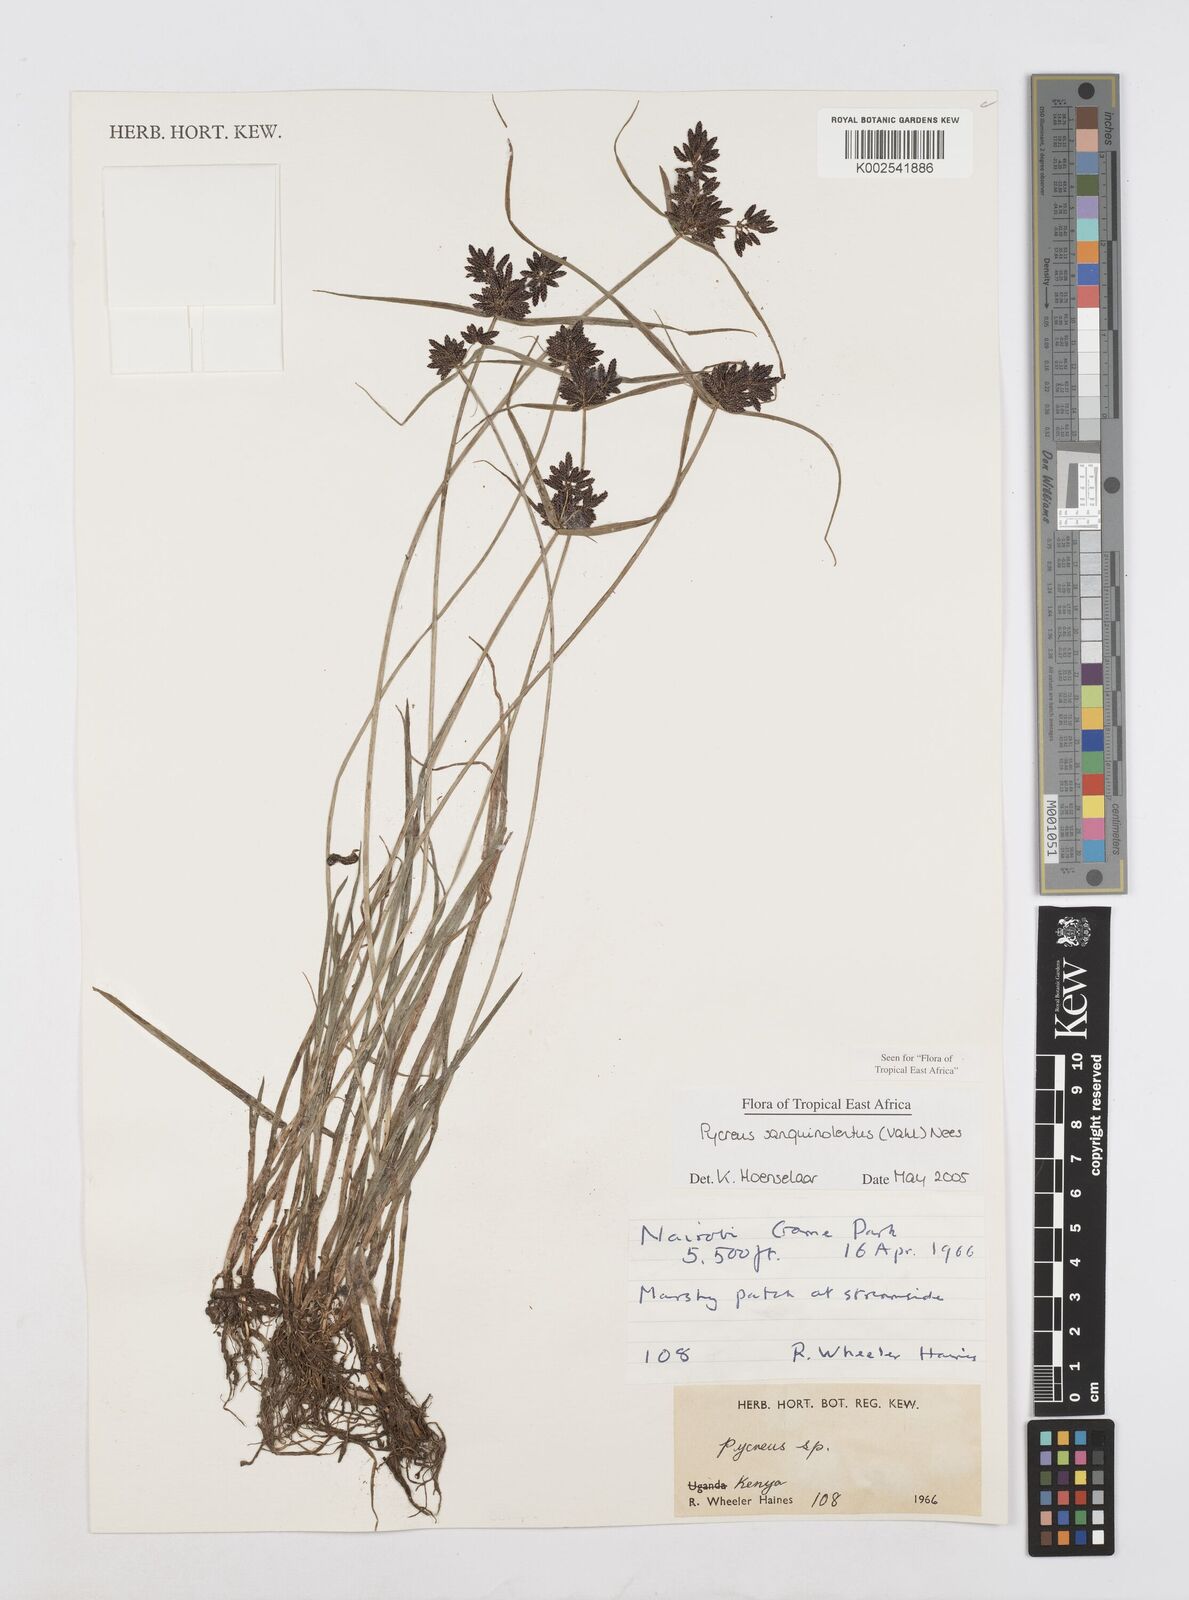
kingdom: Plantae
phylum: Tracheophyta
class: Liliopsida
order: Poales
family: Cyperaceae
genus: Cyperus
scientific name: Cyperus sanguinolentus
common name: Purpleglume flatsedge
